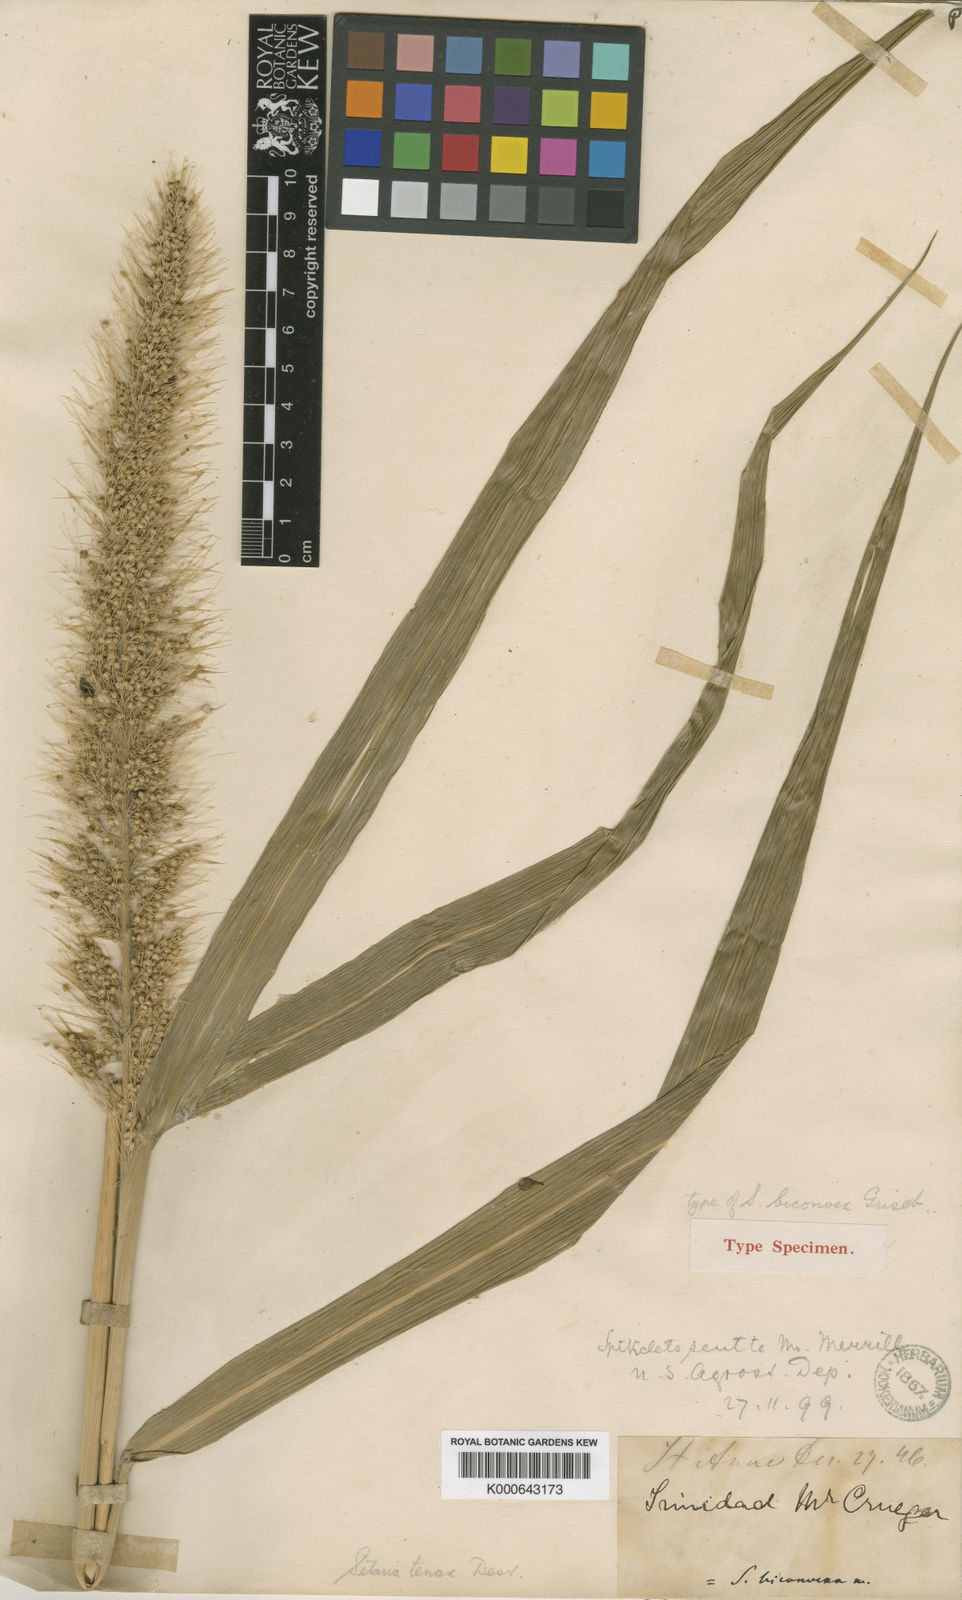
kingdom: Plantae
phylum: Tracheophyta
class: Liliopsida
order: Poales
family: Poaceae
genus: Setaria
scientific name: Setaria tenax
